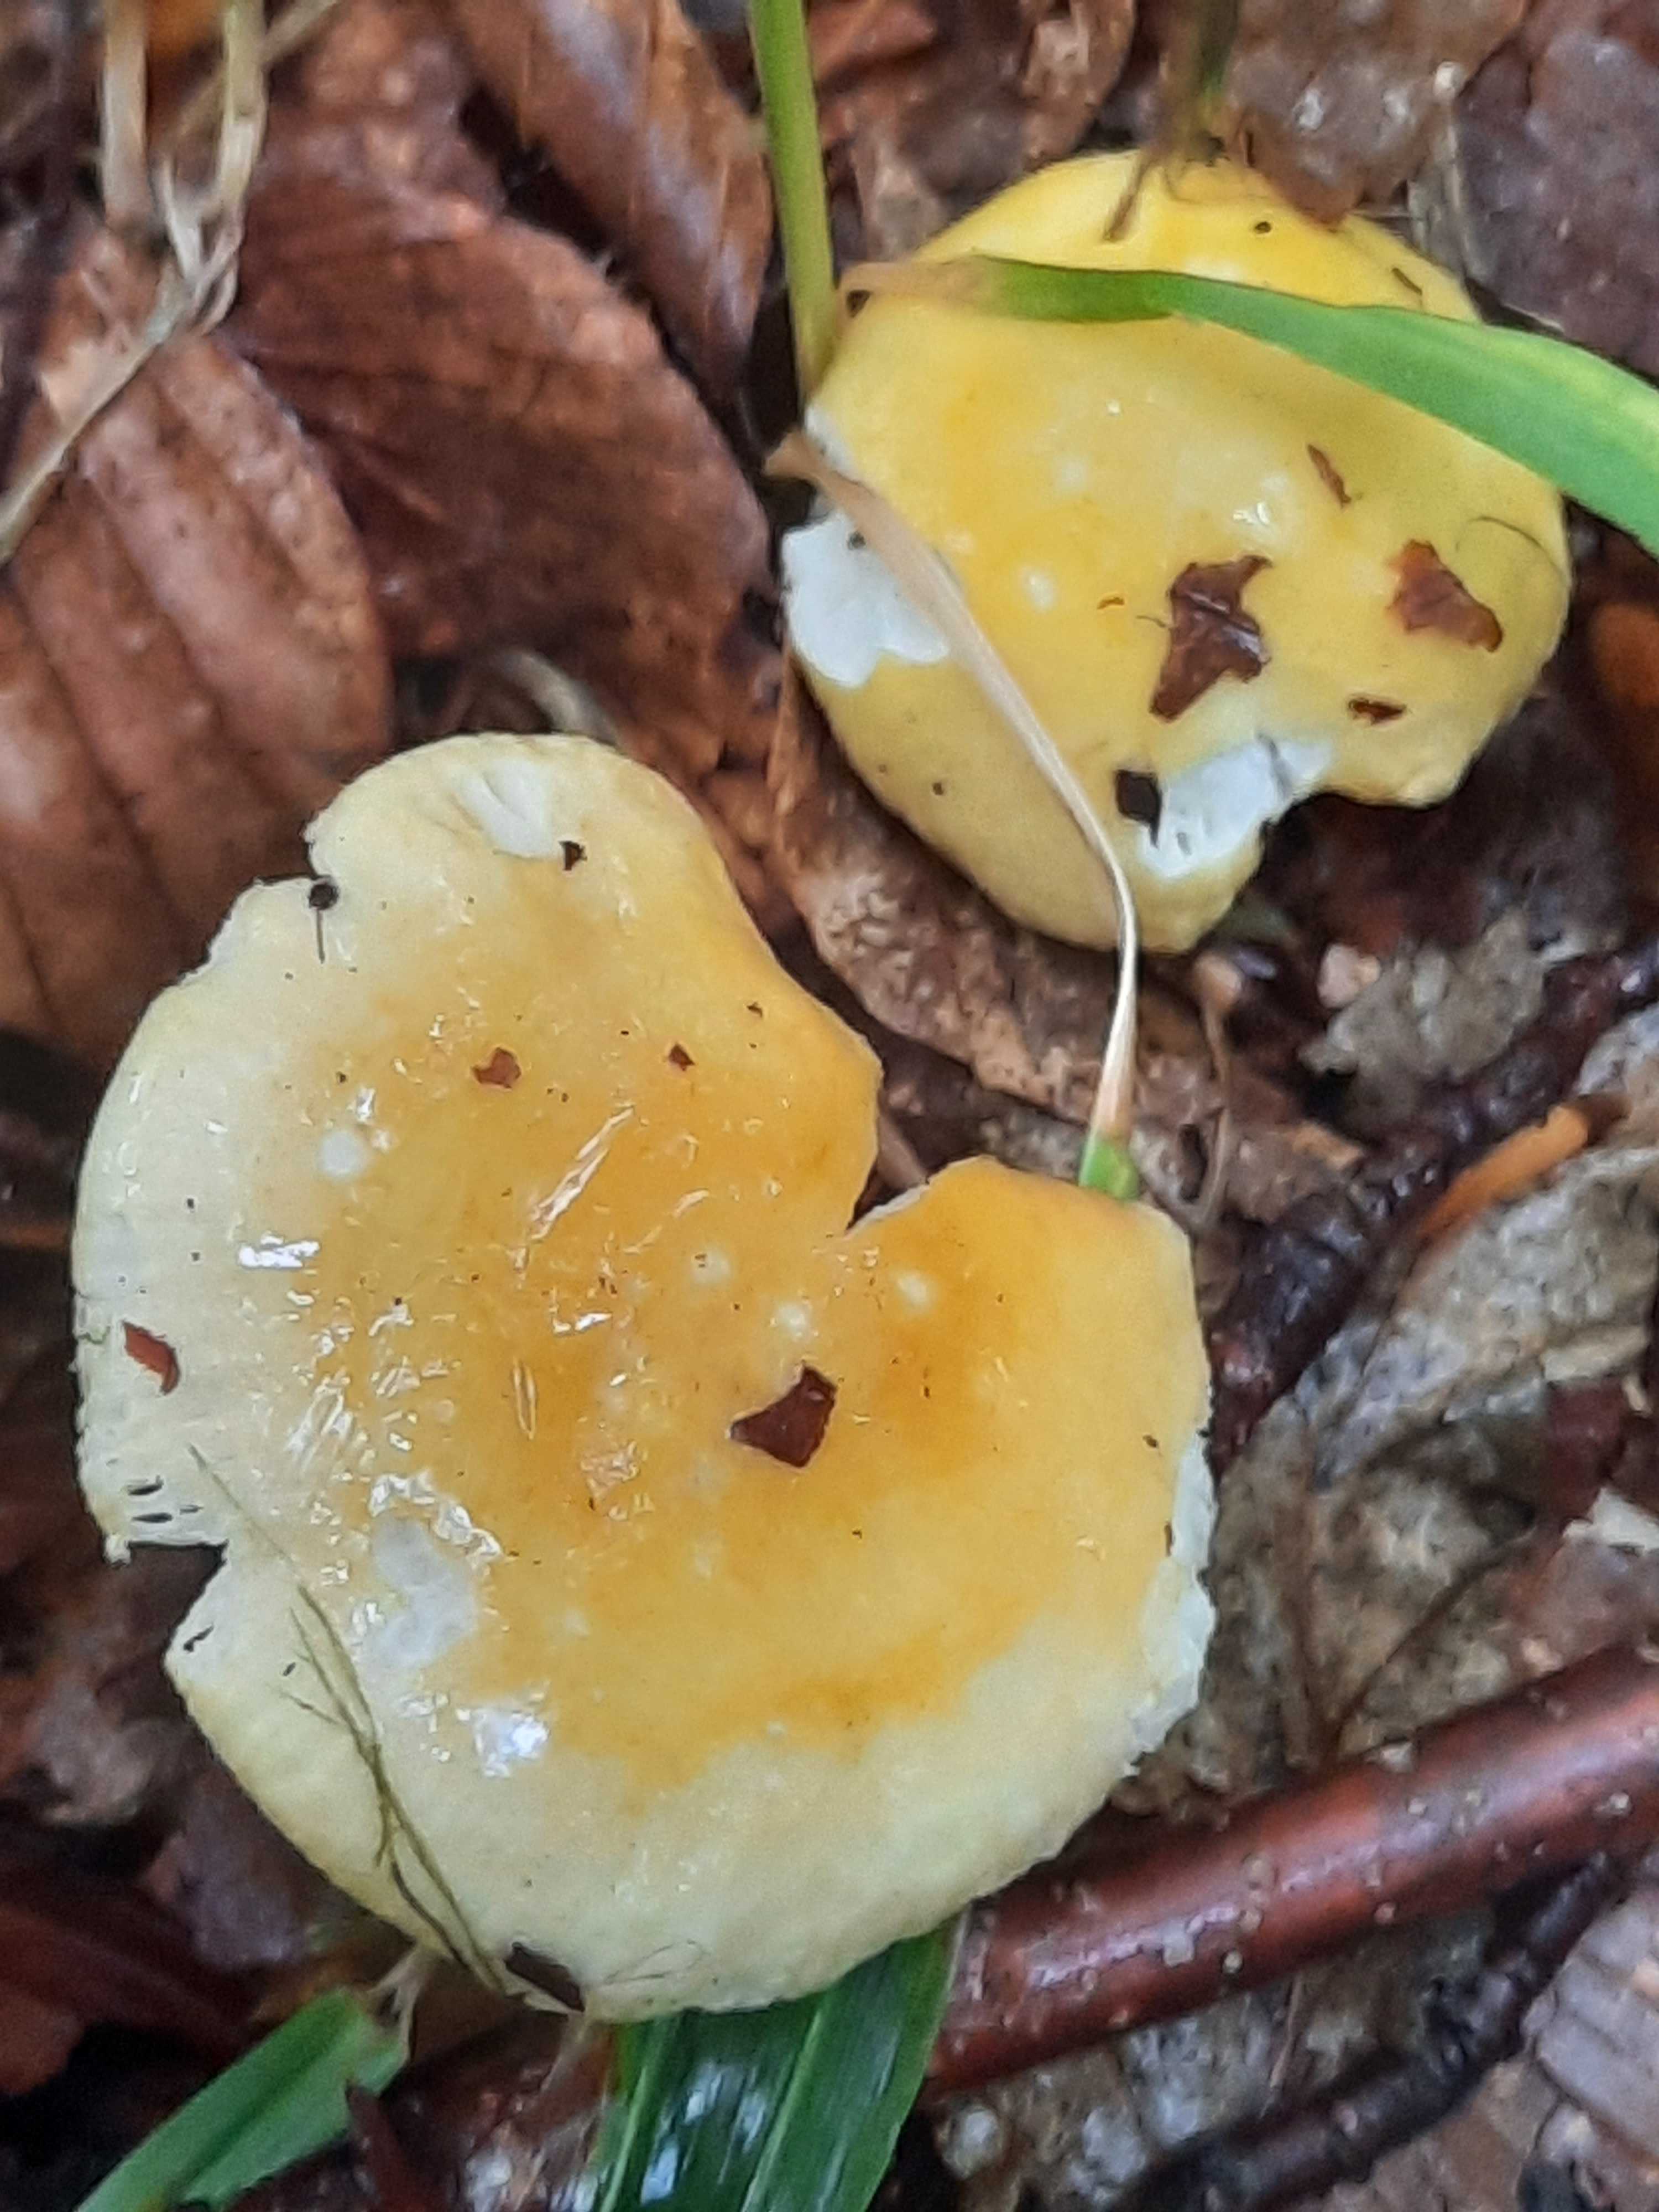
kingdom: Fungi
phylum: Basidiomycota
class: Agaricomycetes
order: Russulales
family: Russulaceae
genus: Russula
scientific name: Russula
